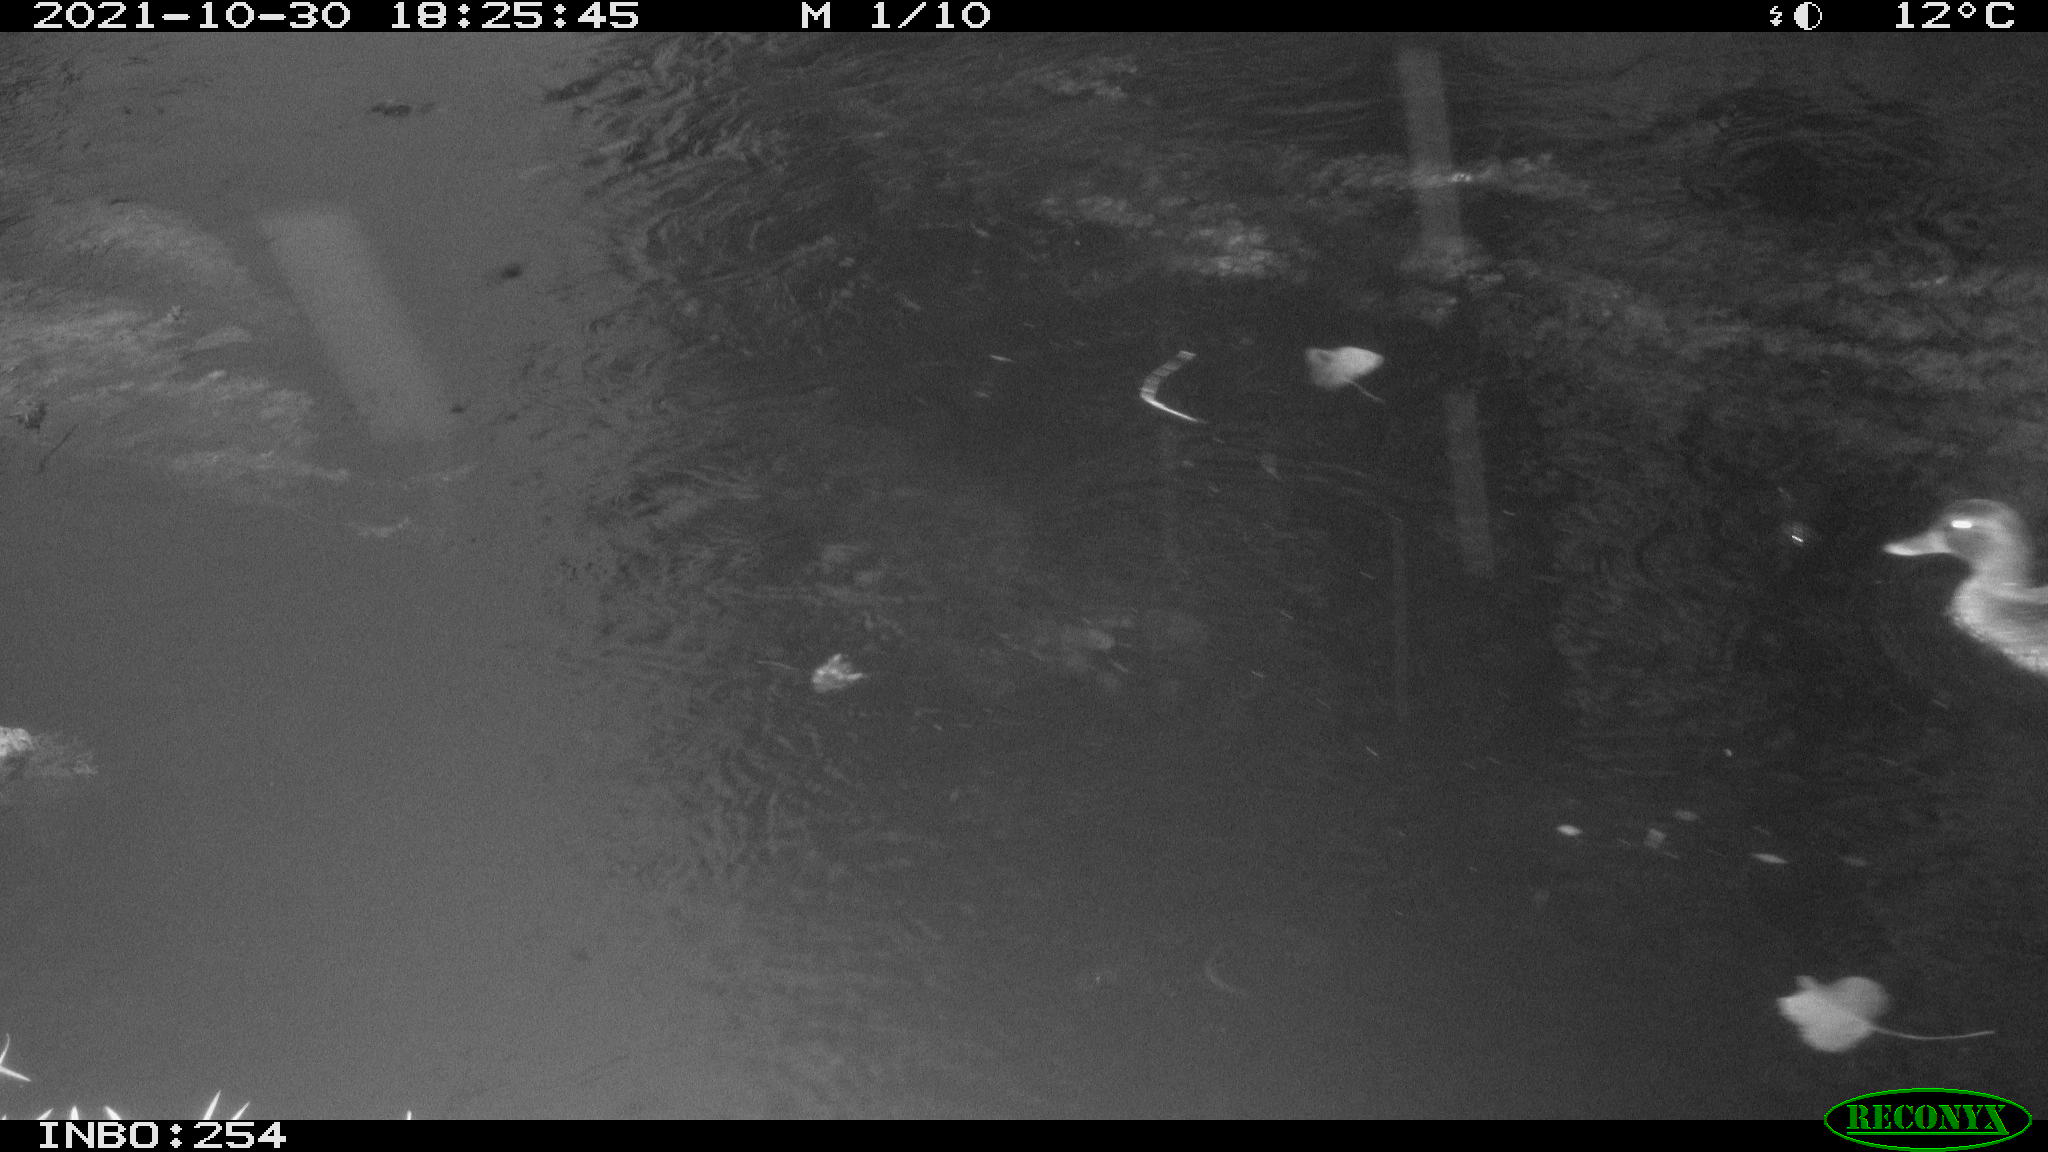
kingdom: Animalia
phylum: Chordata
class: Aves
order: Anseriformes
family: Anatidae
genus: Anas
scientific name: Anas platyrhynchos
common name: Mallard
